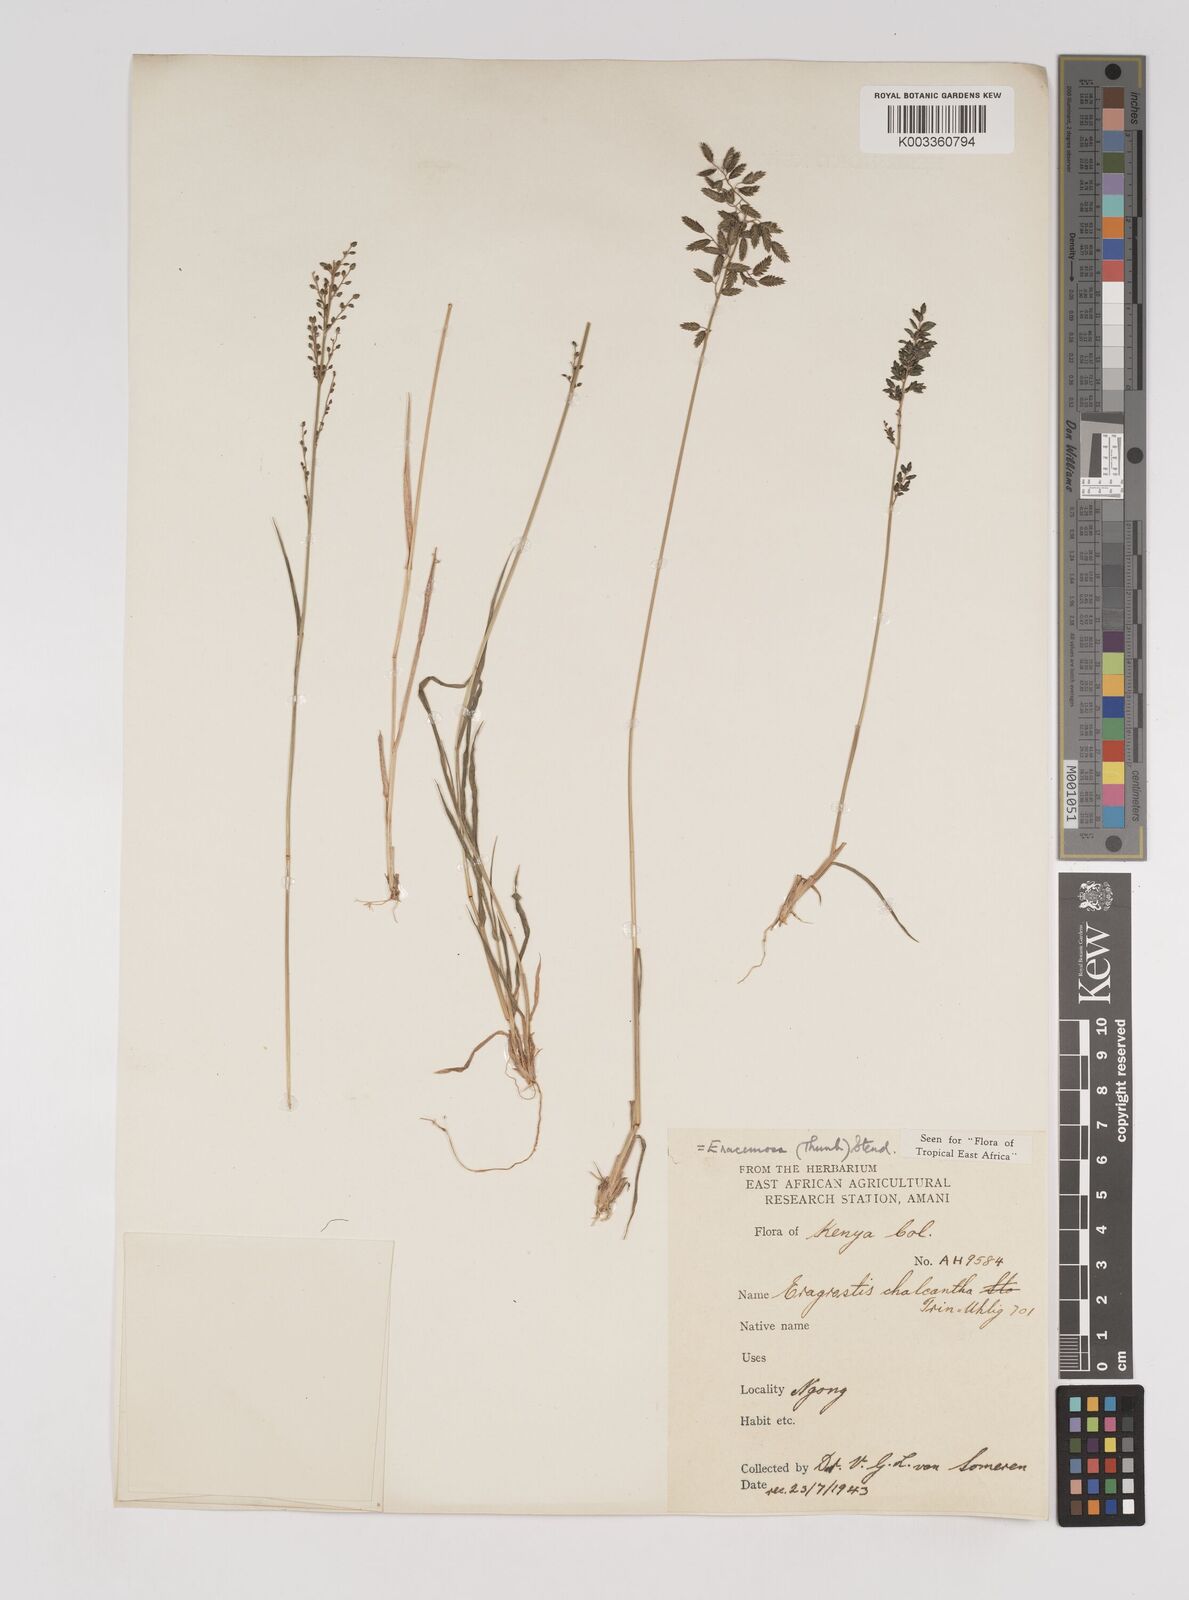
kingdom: Plantae
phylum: Tracheophyta
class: Liliopsida
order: Poales
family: Poaceae
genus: Eragrostis
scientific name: Eragrostis racemosa
